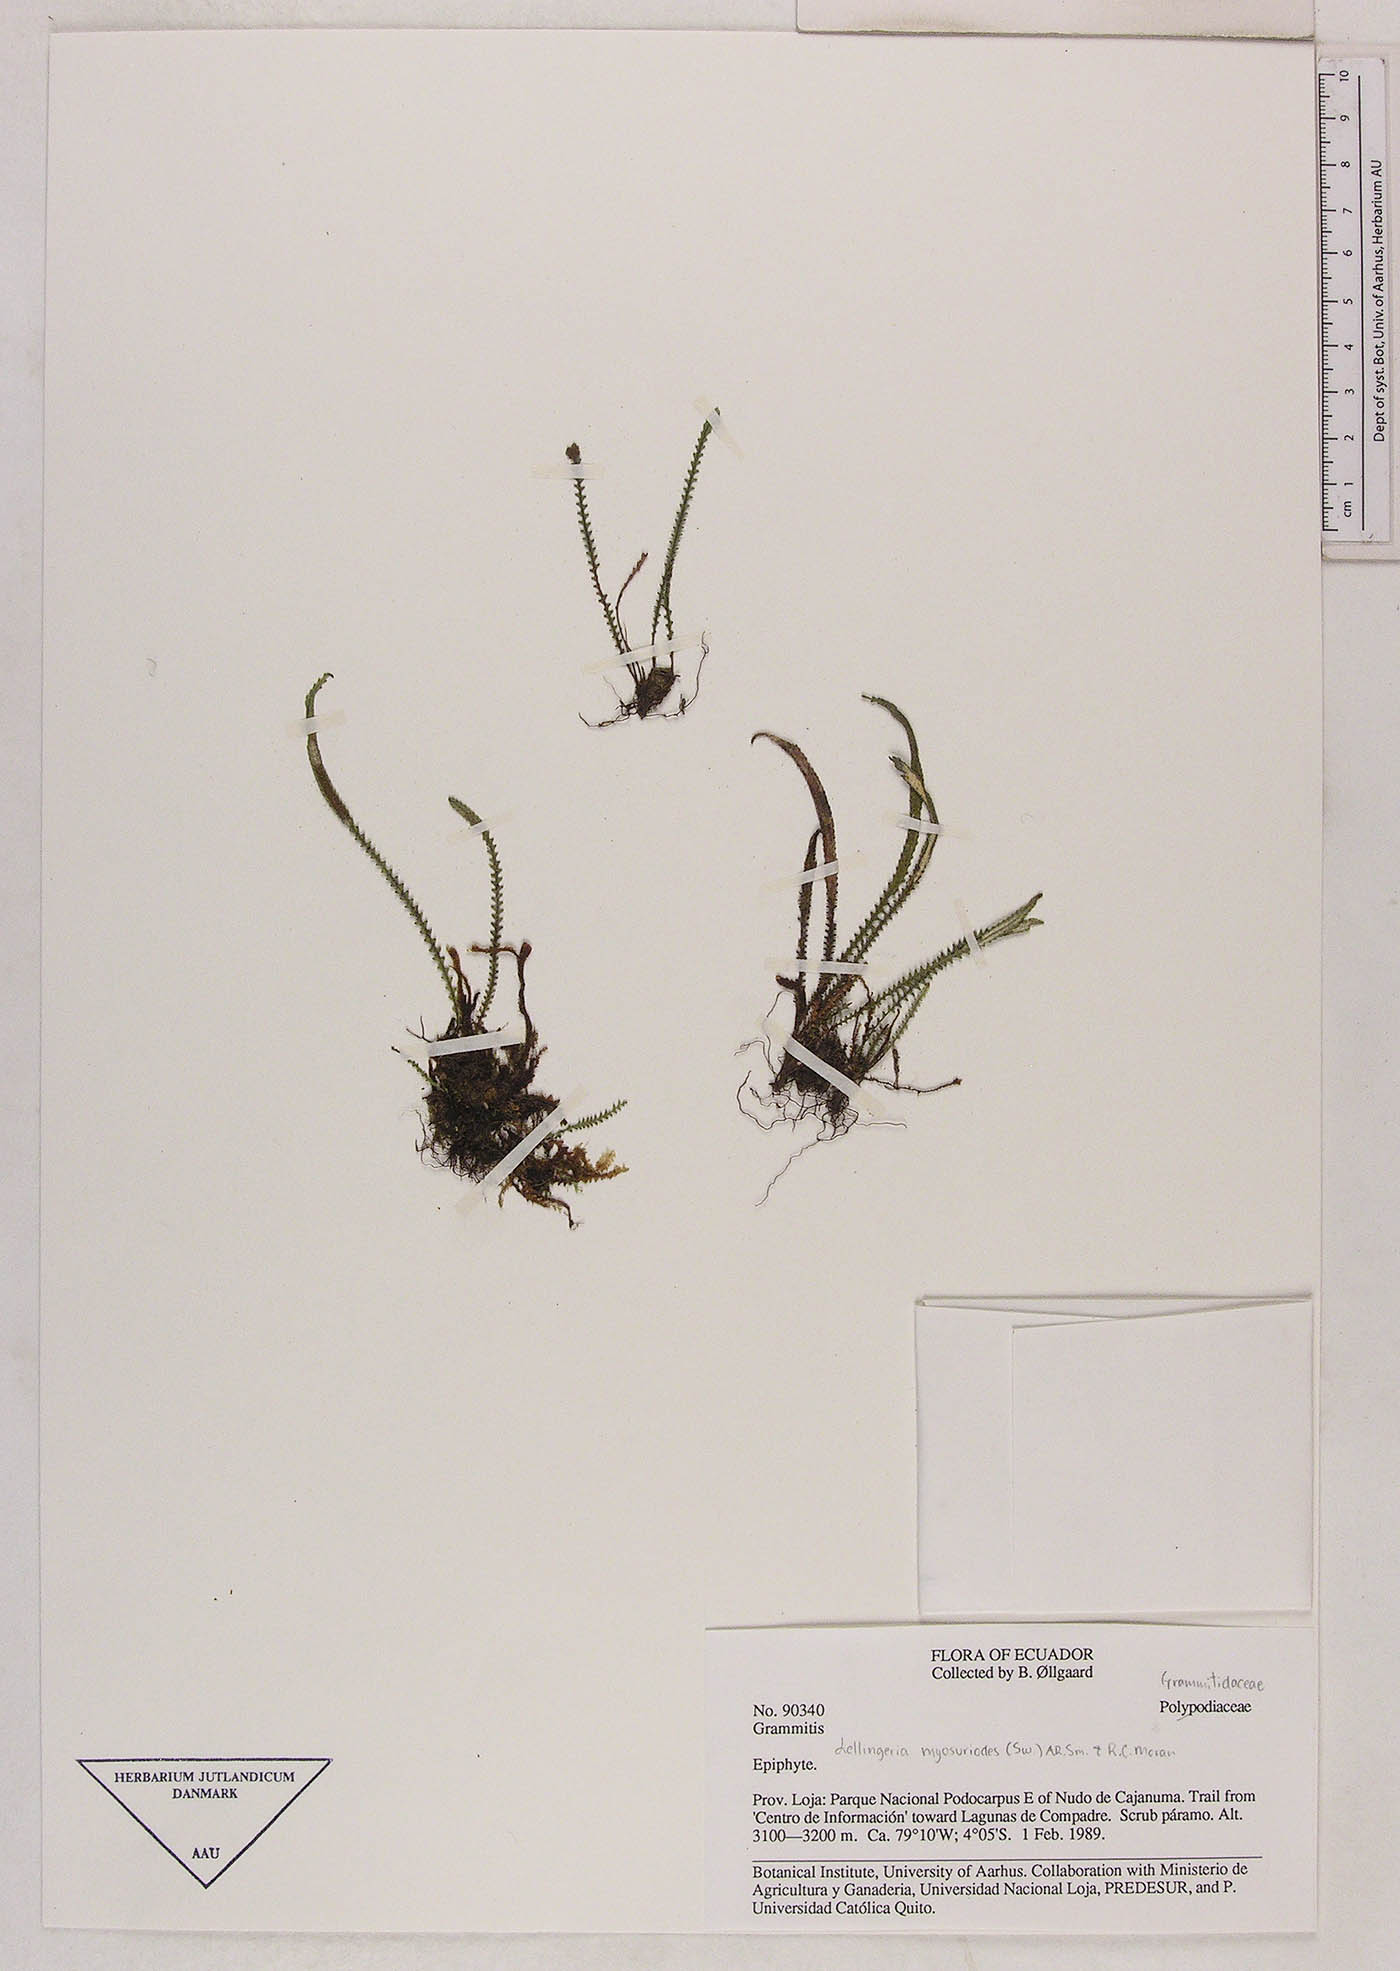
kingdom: Plantae
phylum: Tracheophyta
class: Polypodiopsida
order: Polypodiales
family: Polypodiaceae
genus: Stenogrammitis
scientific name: Stenogrammitis jamesonii
